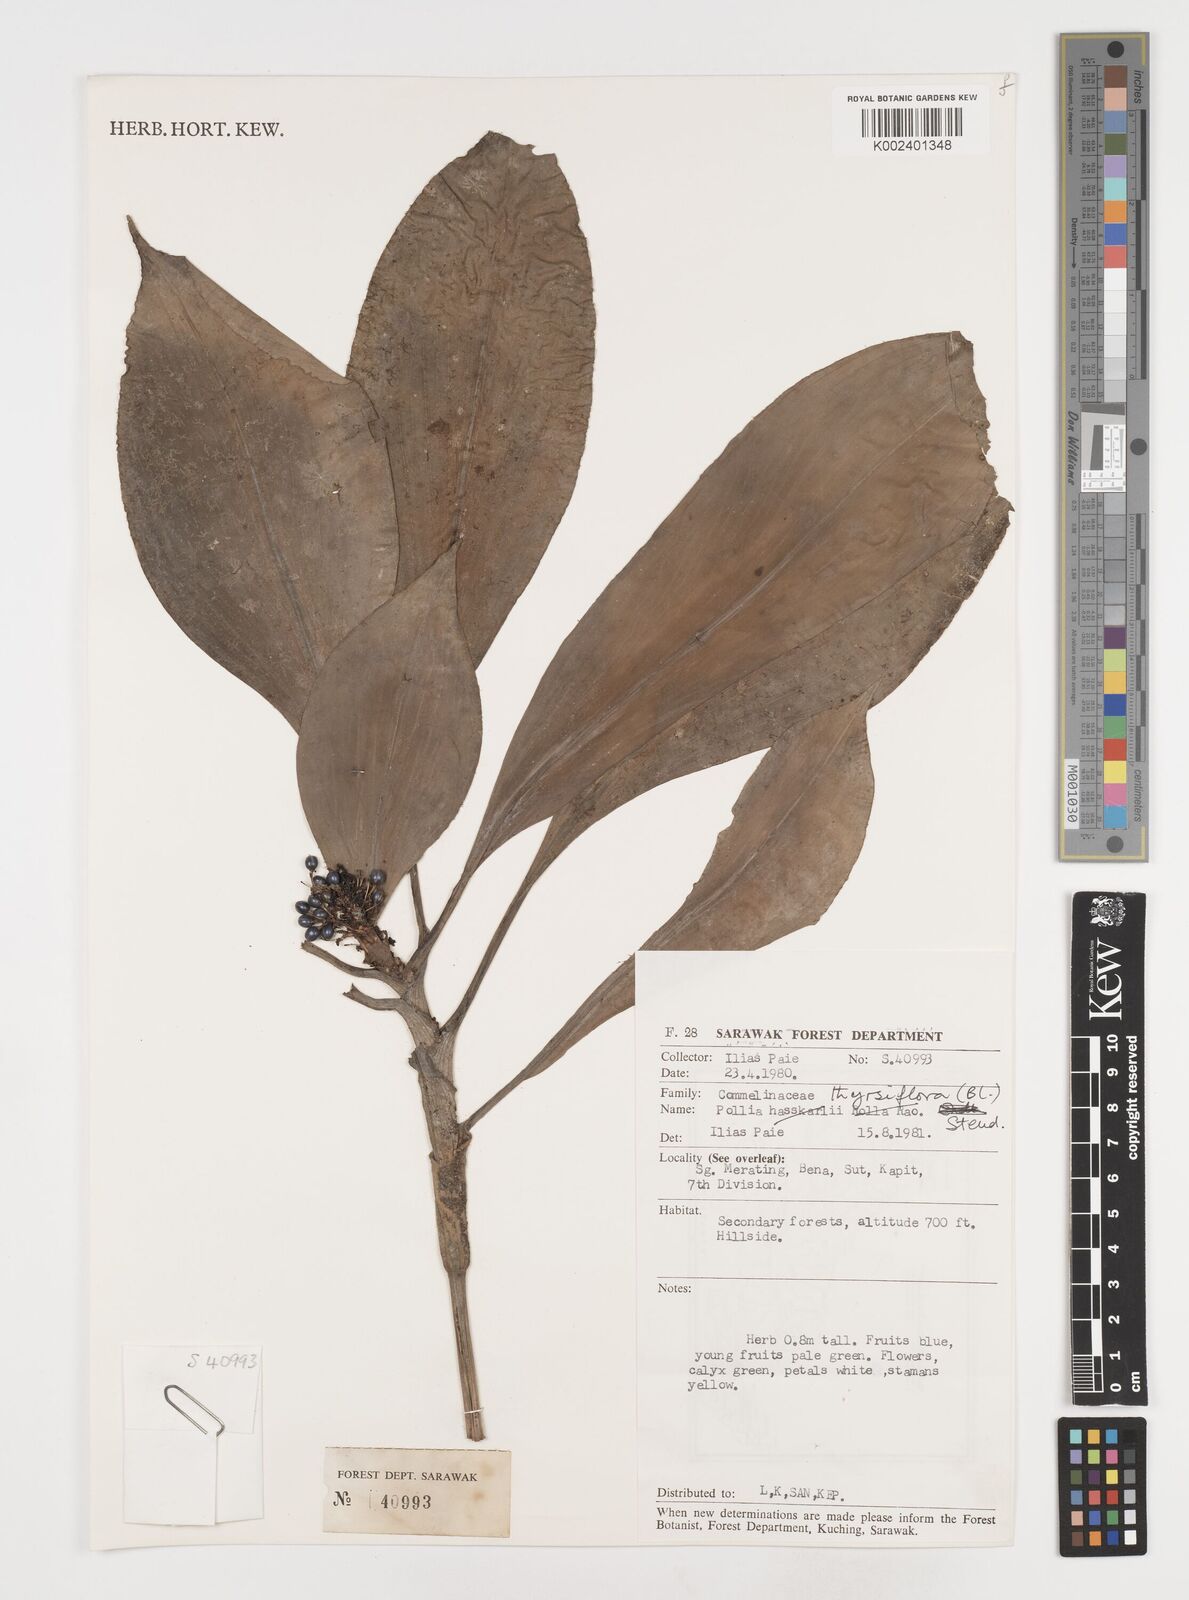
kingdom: Plantae
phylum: Tracheophyta
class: Liliopsida
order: Commelinales
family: Commelinaceae
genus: Pollia
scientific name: Pollia thyrsiflora
